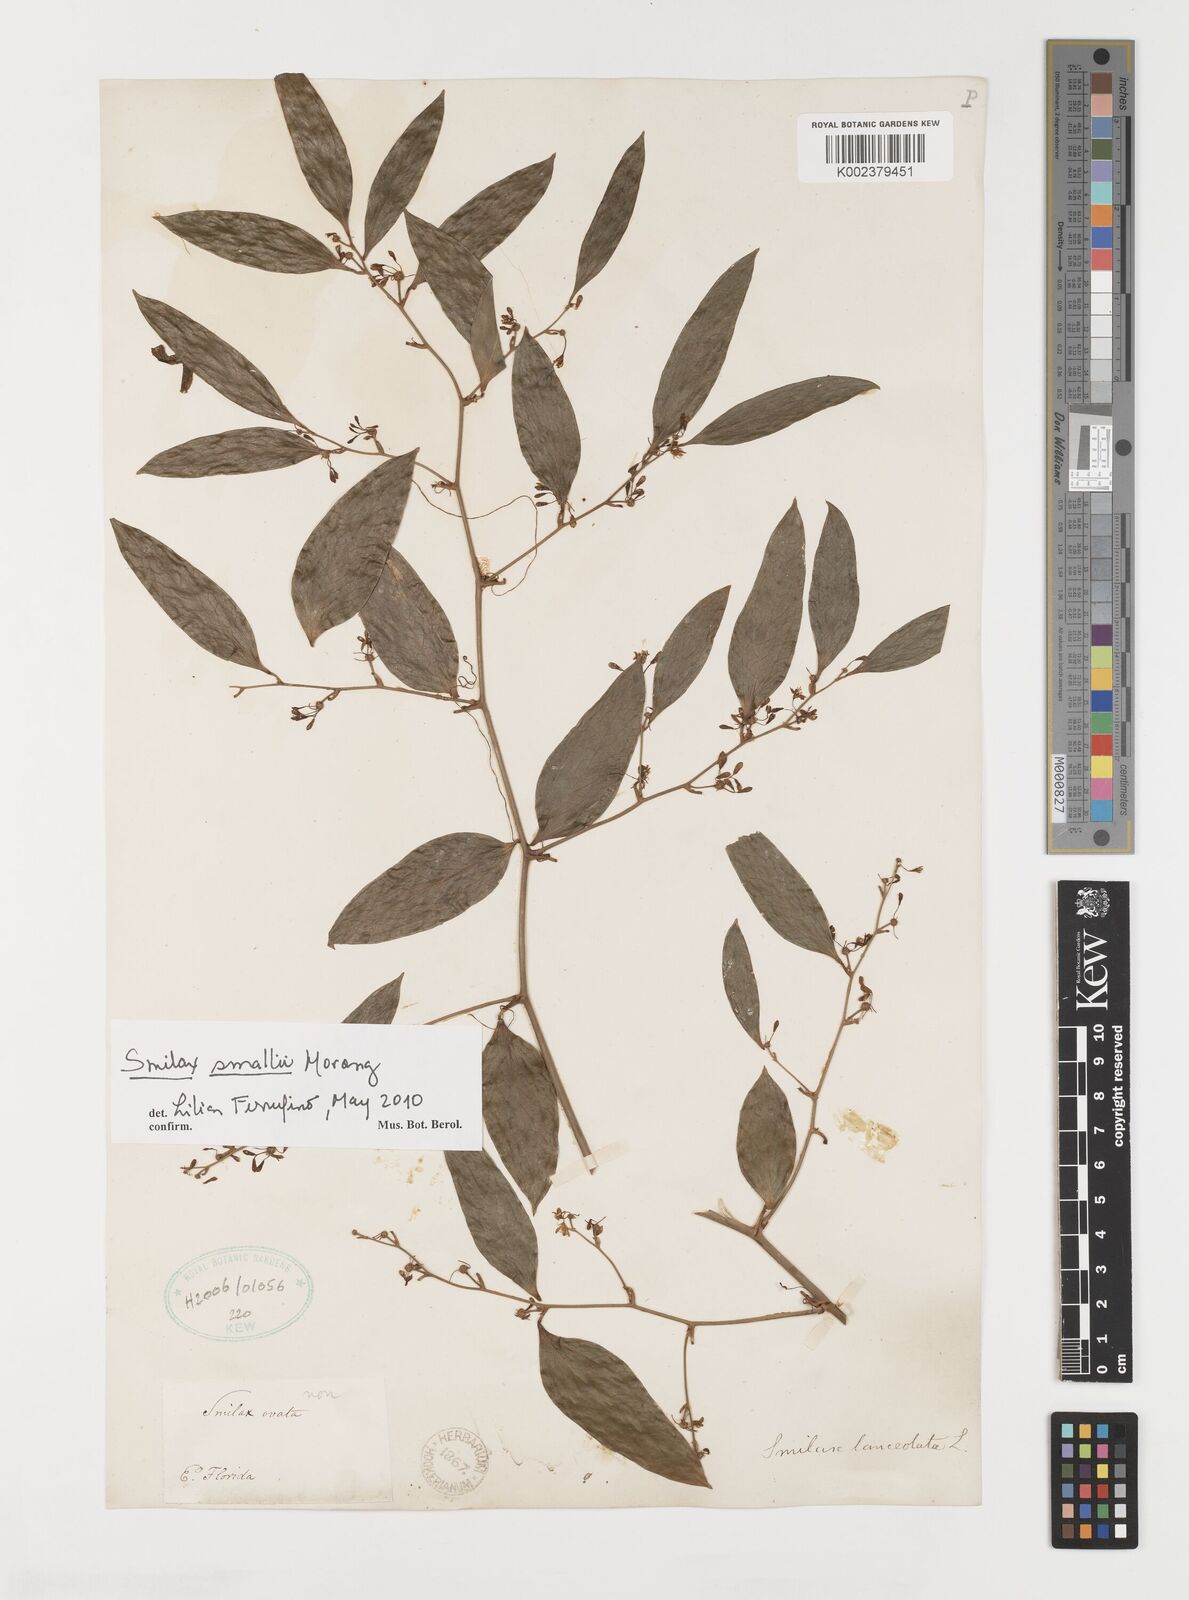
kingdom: Plantae
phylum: Tracheophyta
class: Liliopsida
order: Liliales
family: Smilacaceae
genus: Smilax
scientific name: Smilax maritima
